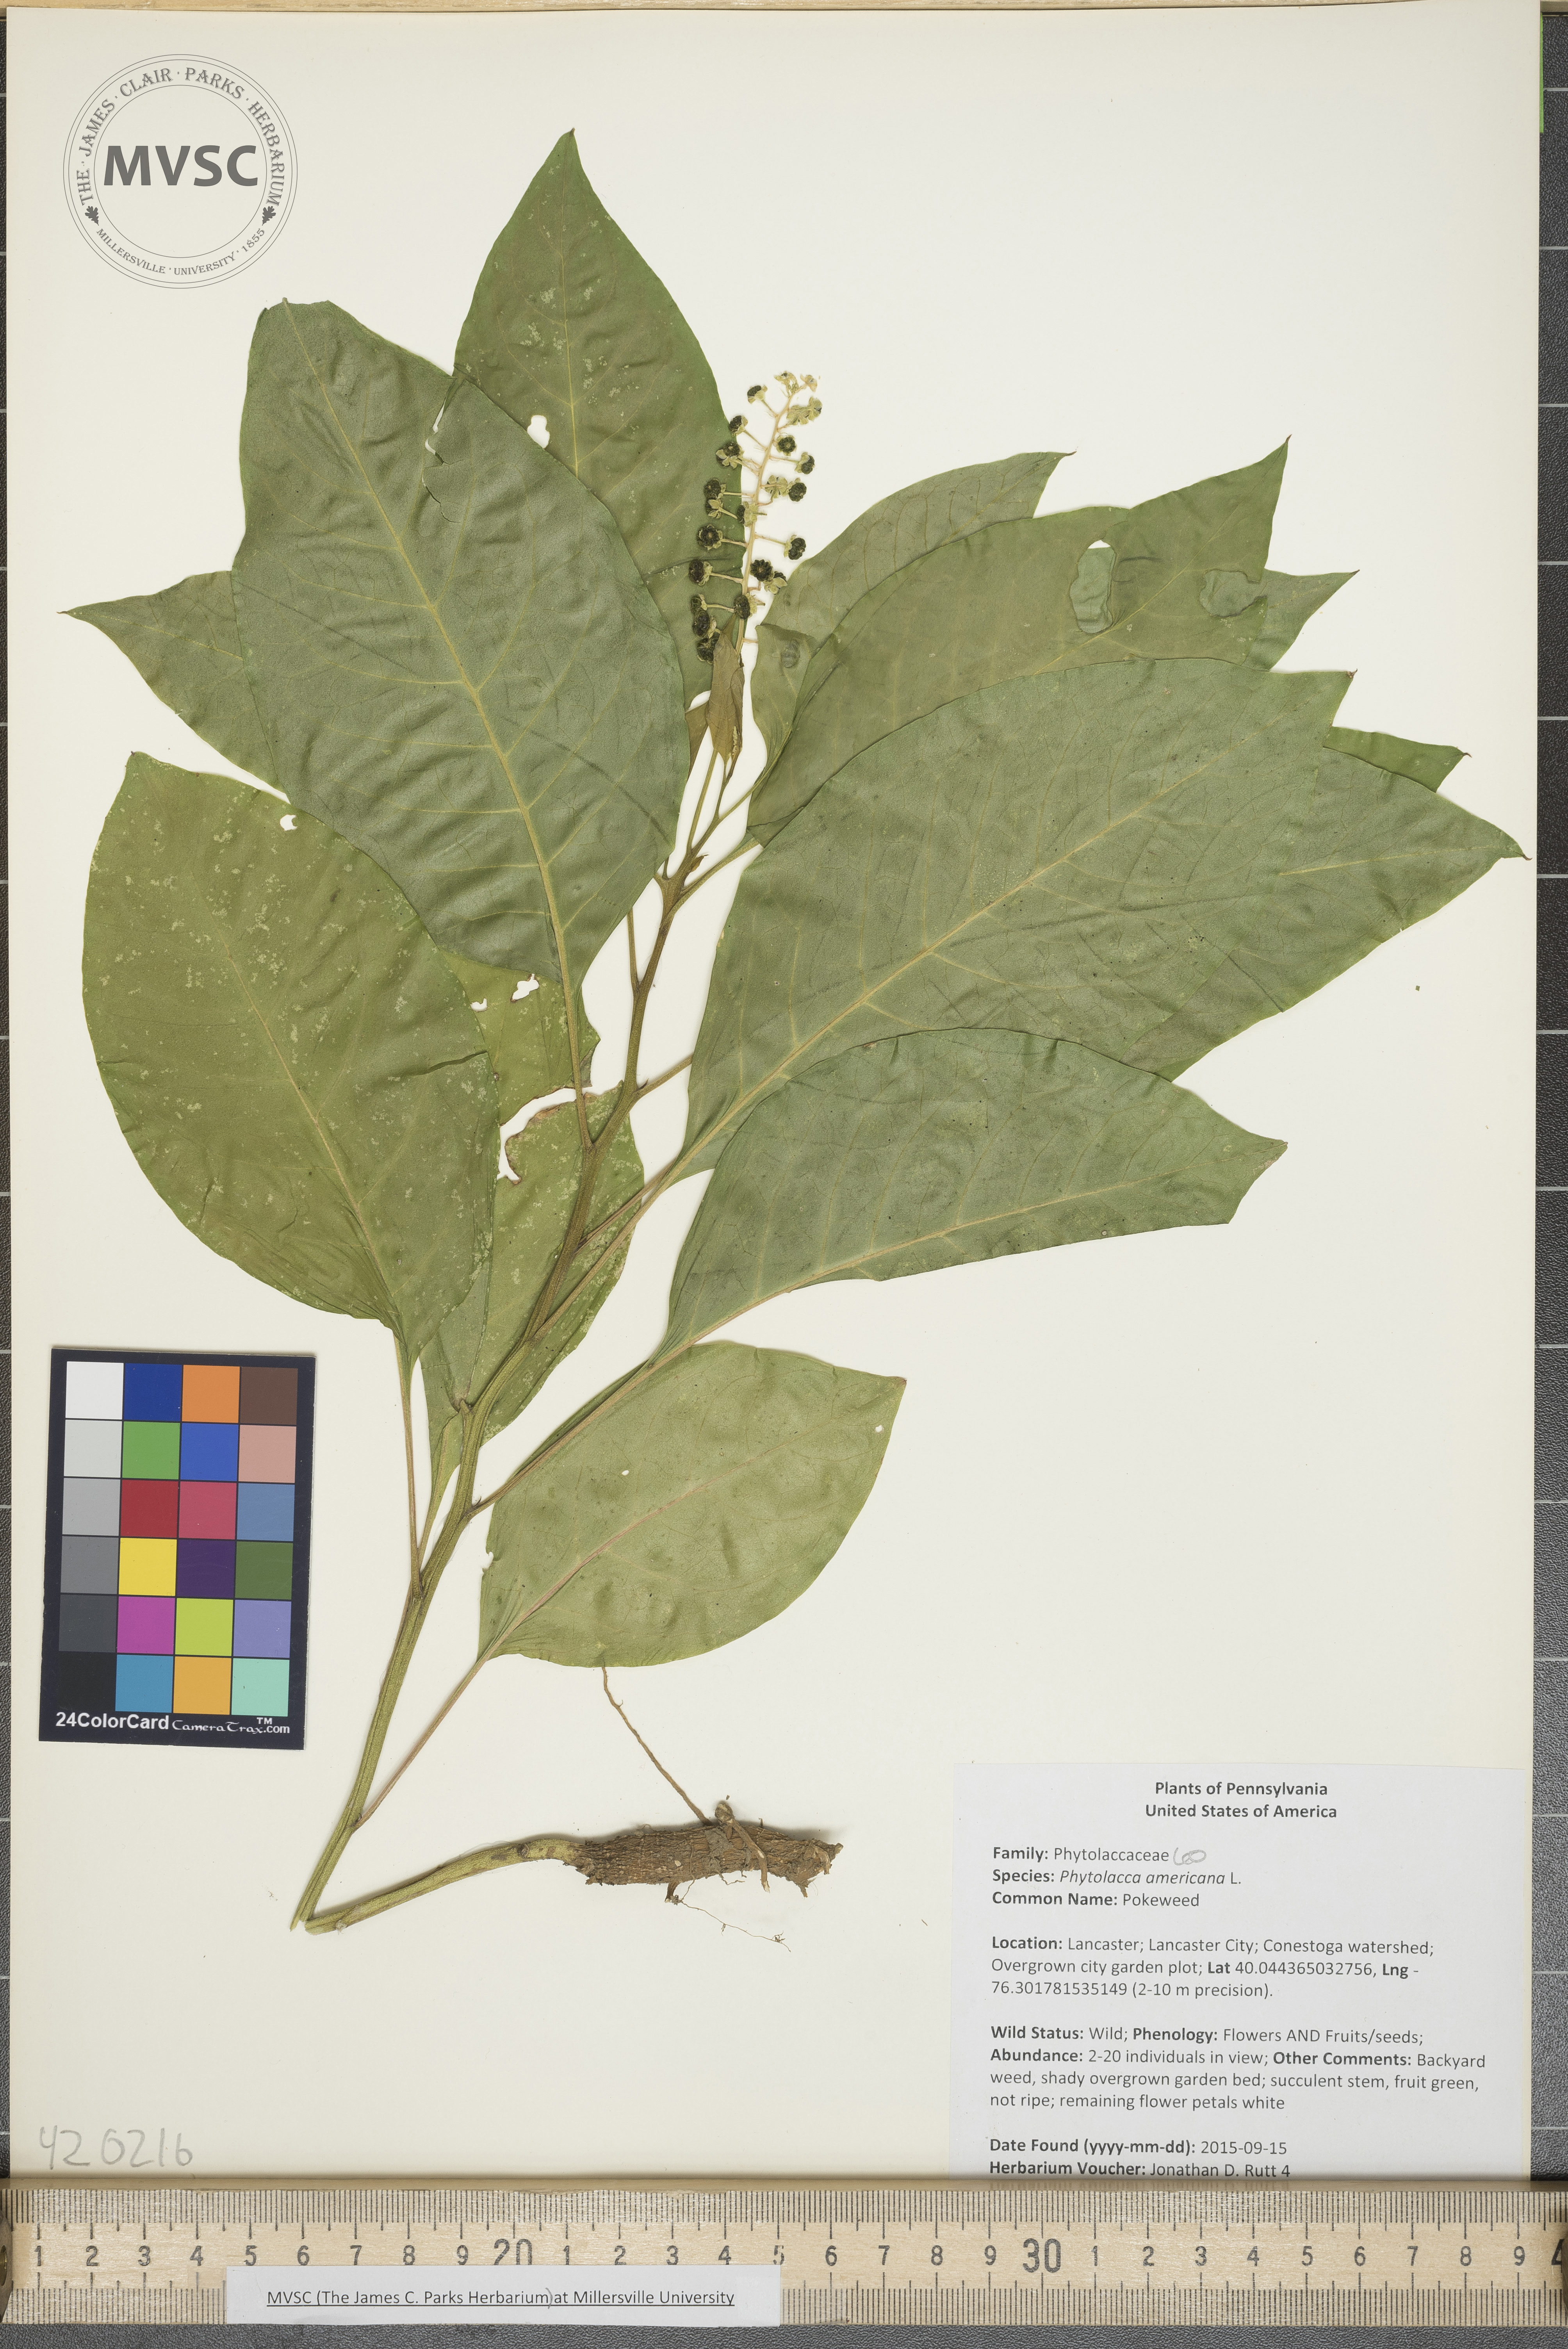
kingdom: Plantae
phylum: Tracheophyta
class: Magnoliopsida
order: Caryophyllales
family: Phytolaccaceae
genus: Phytolacca
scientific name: Phytolacca americana
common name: Pokeweed
